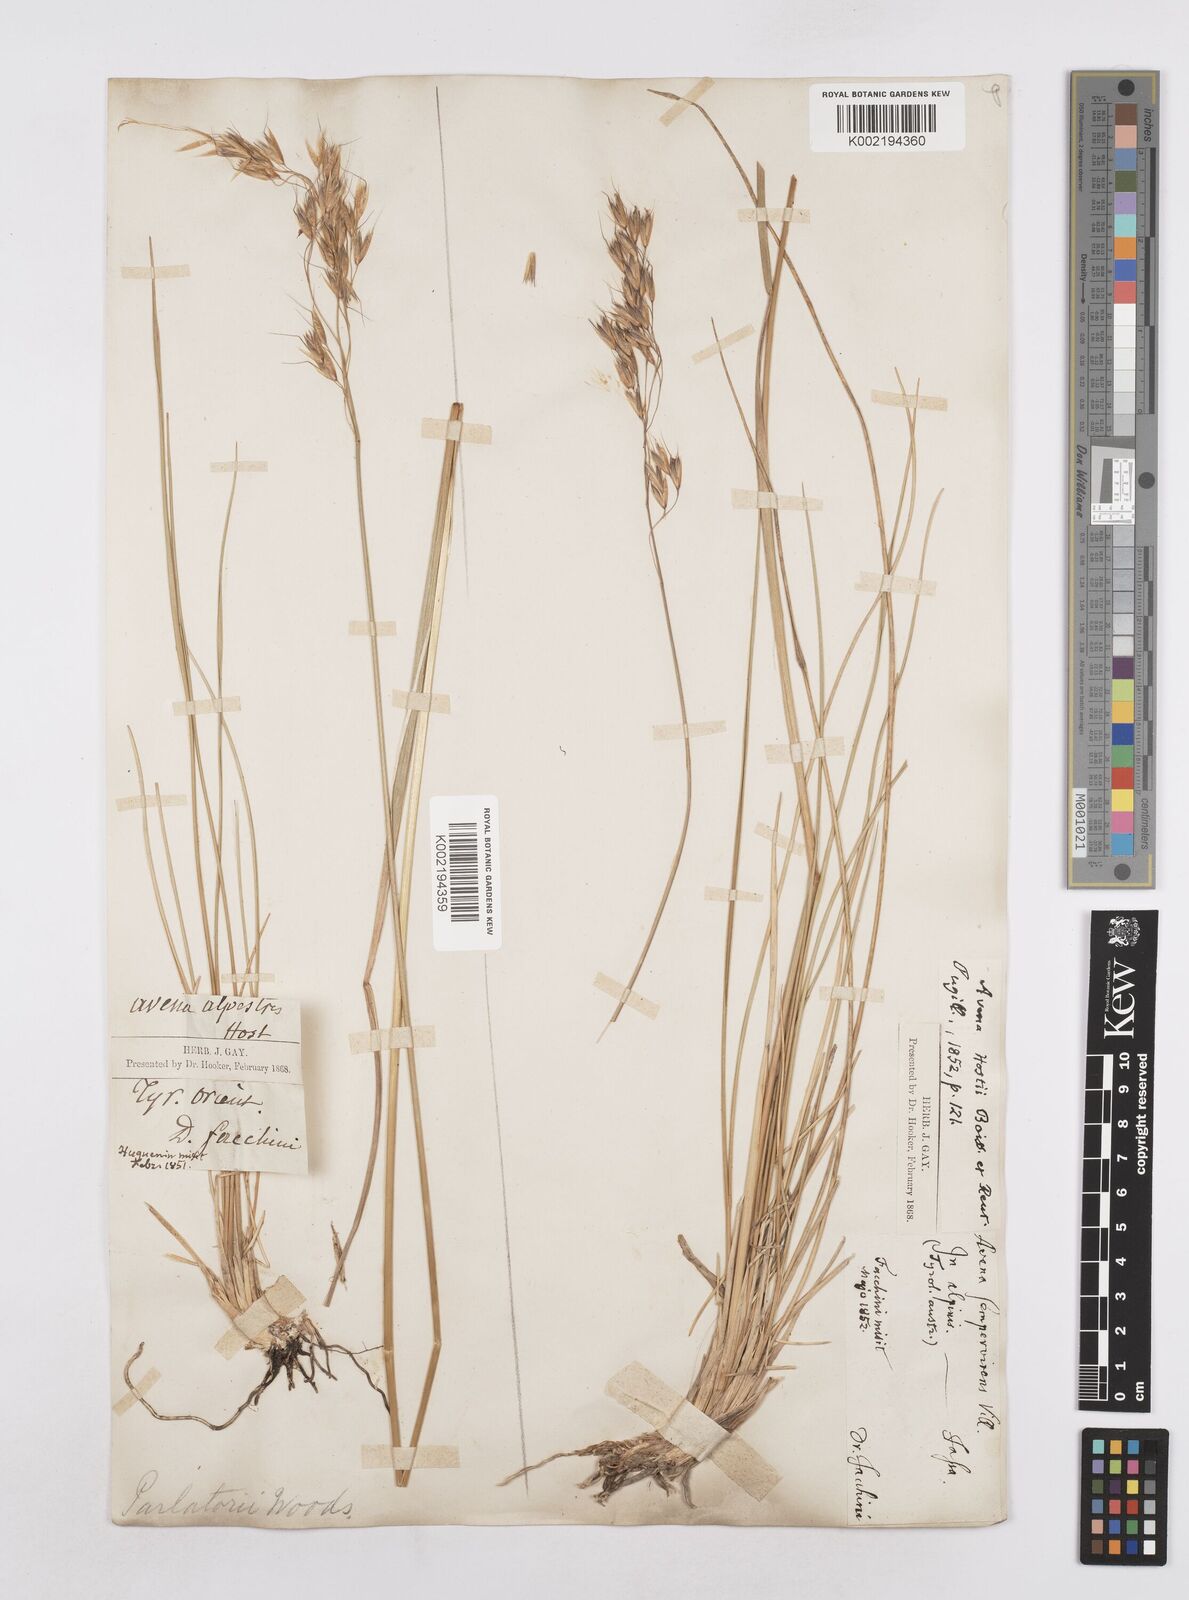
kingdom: Plantae
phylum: Tracheophyta
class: Liliopsida
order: Poales
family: Poaceae
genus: Helictotrichon
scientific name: Helictotrichon parlatorei
